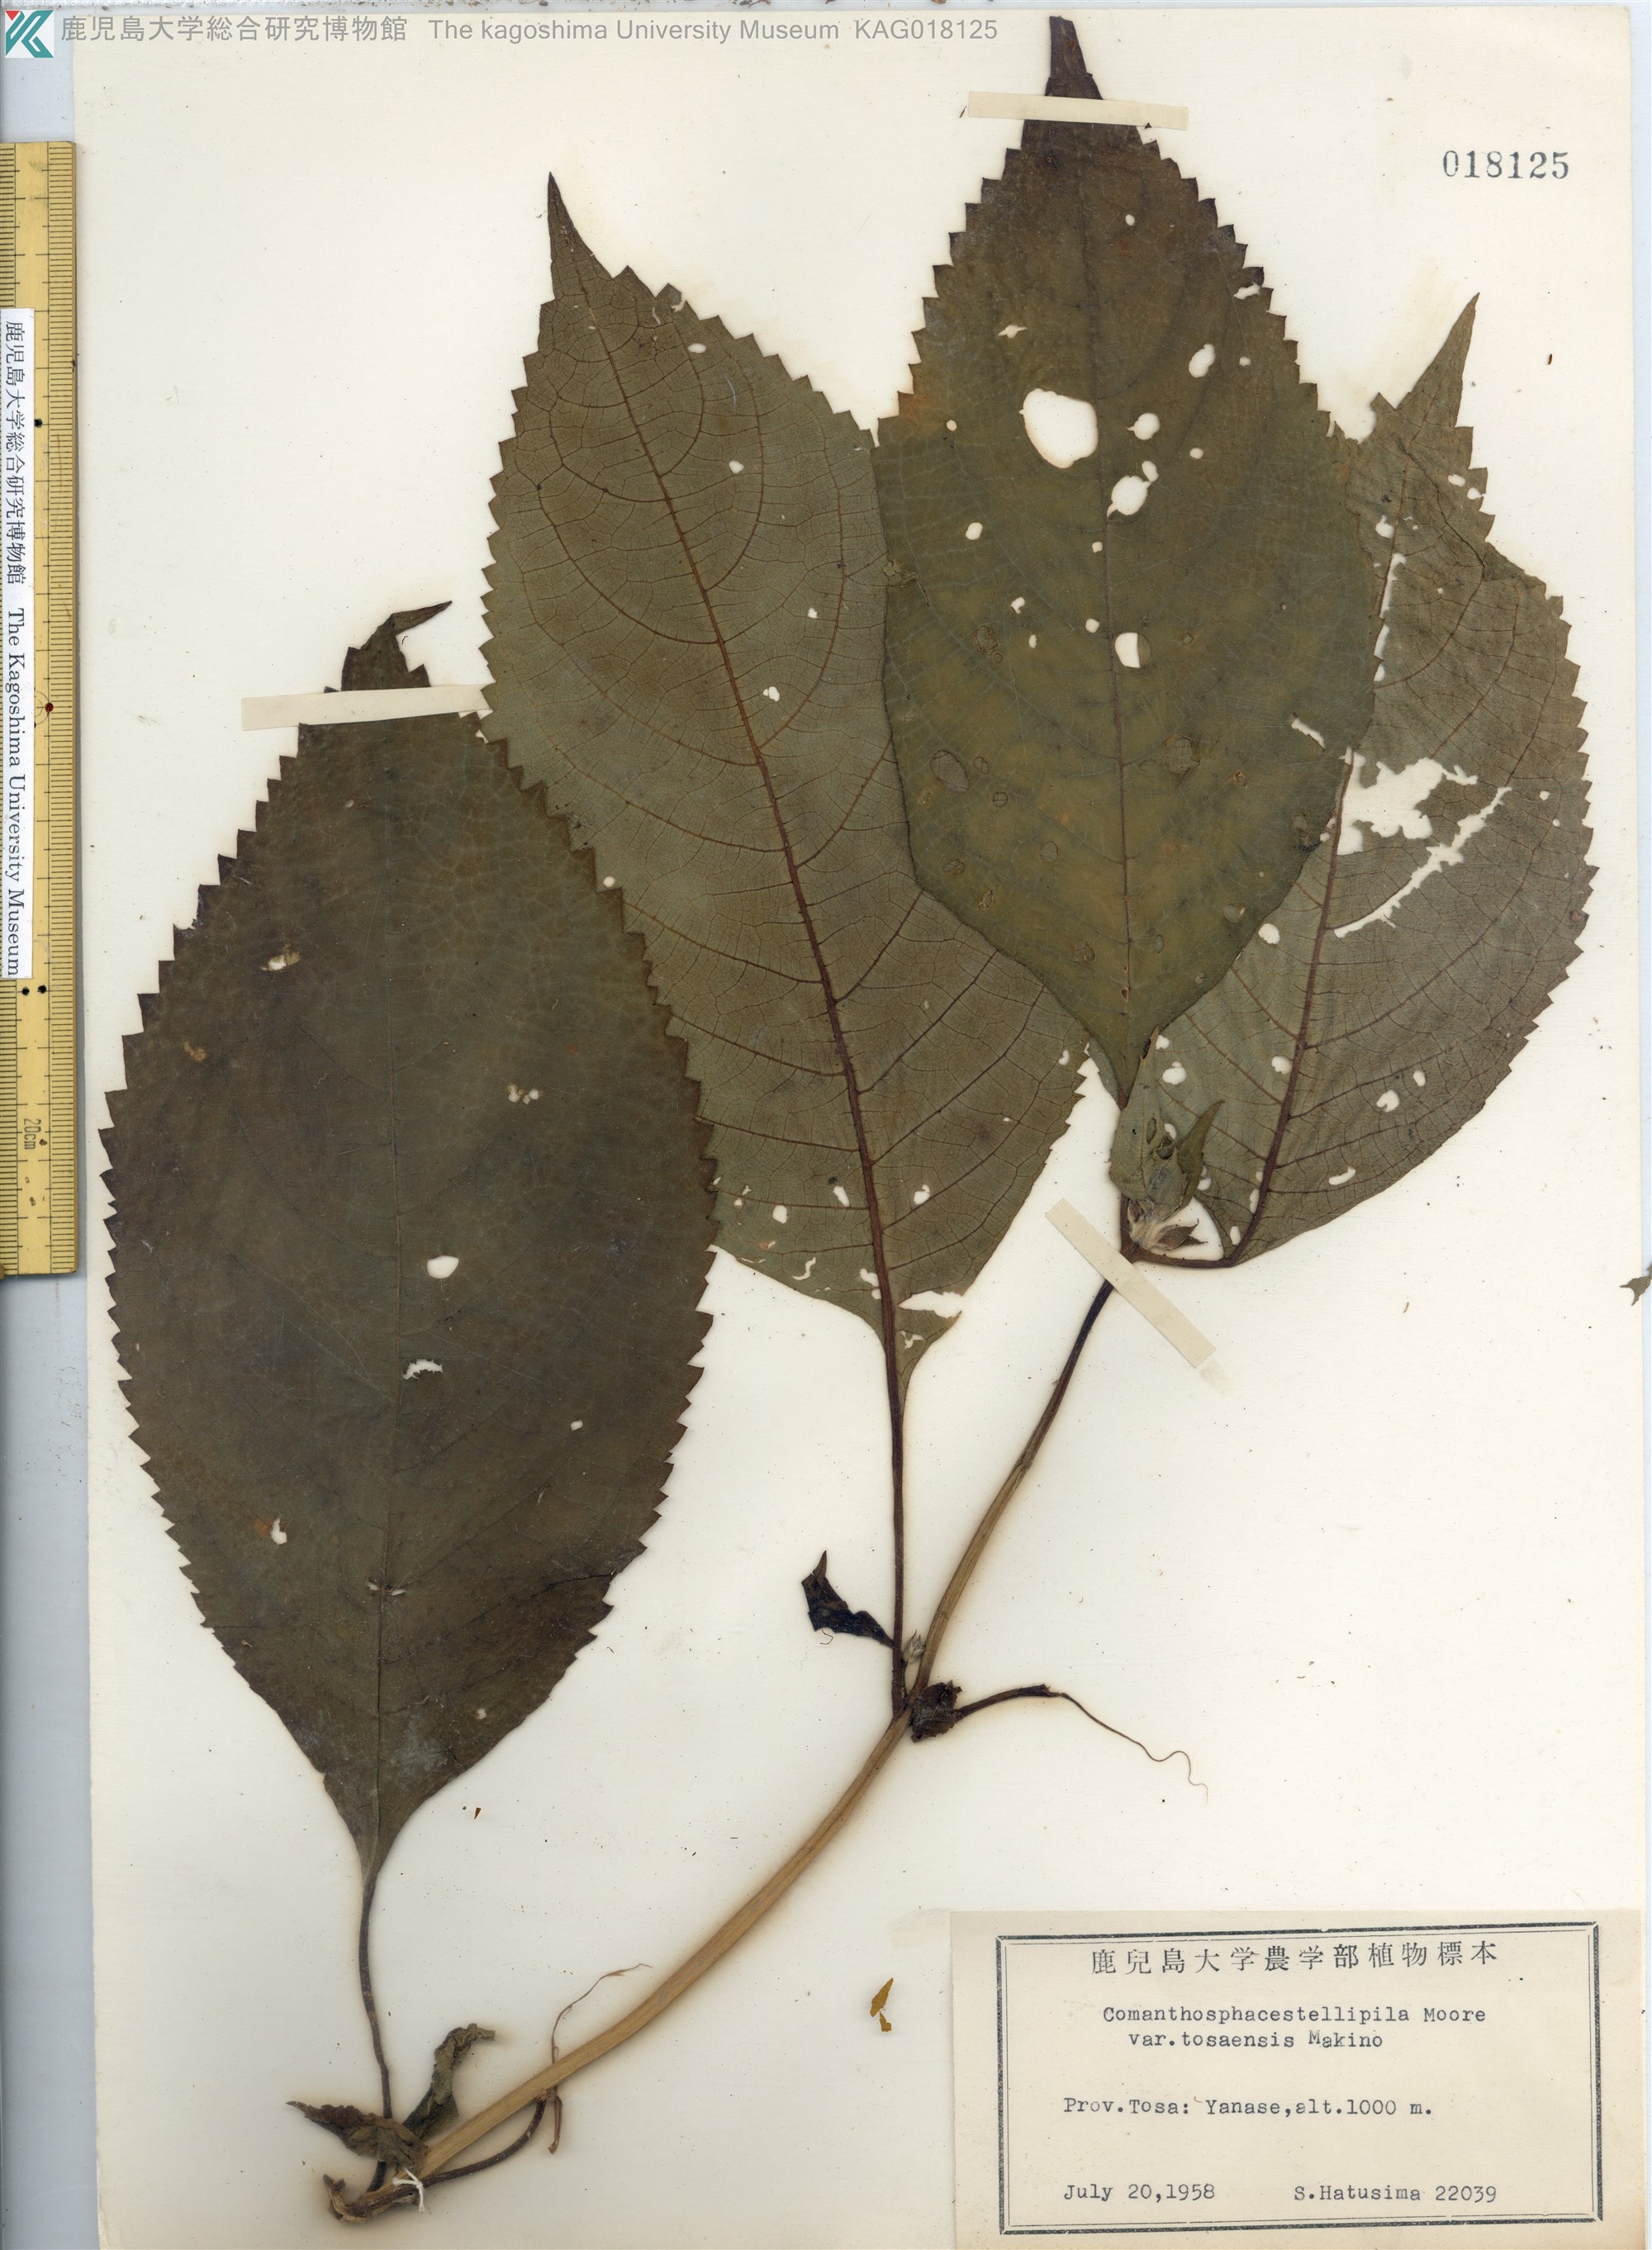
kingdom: Plantae
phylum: Tracheophyta
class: Magnoliopsida
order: Lamiales
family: Lamiaceae
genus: Comanthosphace
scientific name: Comanthosphace japonica
